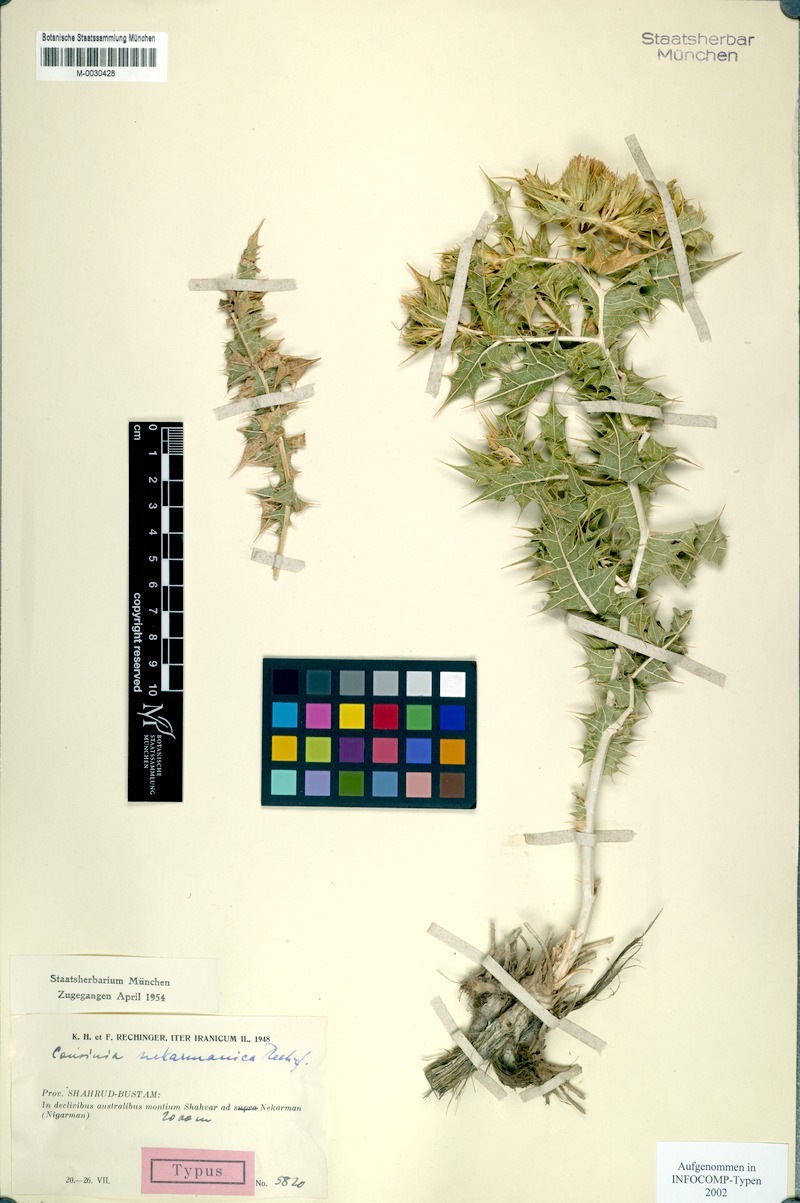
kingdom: Plantae
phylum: Tracheophyta
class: Magnoliopsida
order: Asterales
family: Asteraceae
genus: Cousinia
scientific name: Cousinia alexeenkoana
